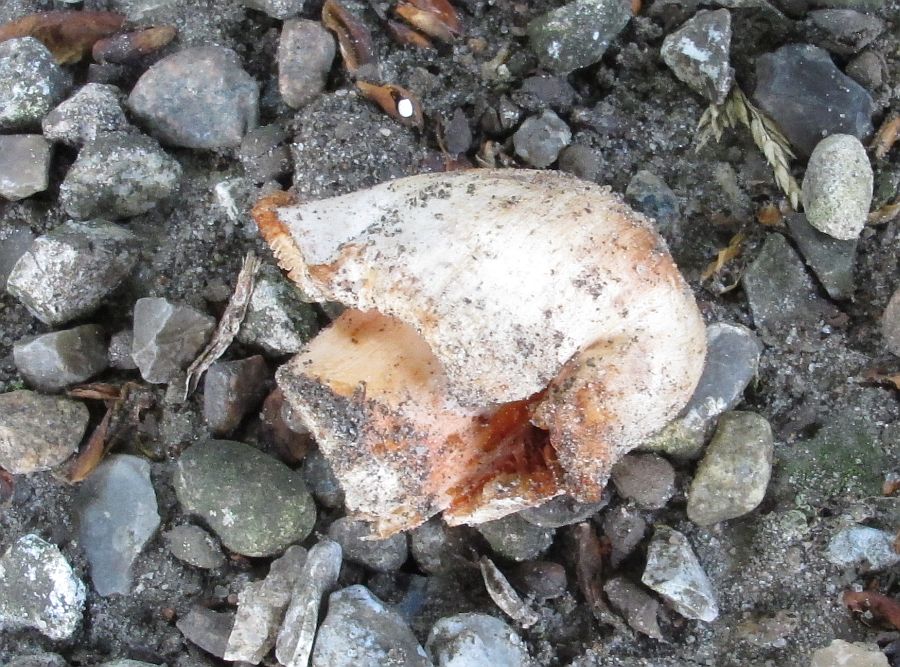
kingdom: Fungi
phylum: Basidiomycota
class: Agaricomycetes
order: Agaricales
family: Inocybaceae
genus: Inosperma
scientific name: Inosperma erubescens
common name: giftig trævlhat
